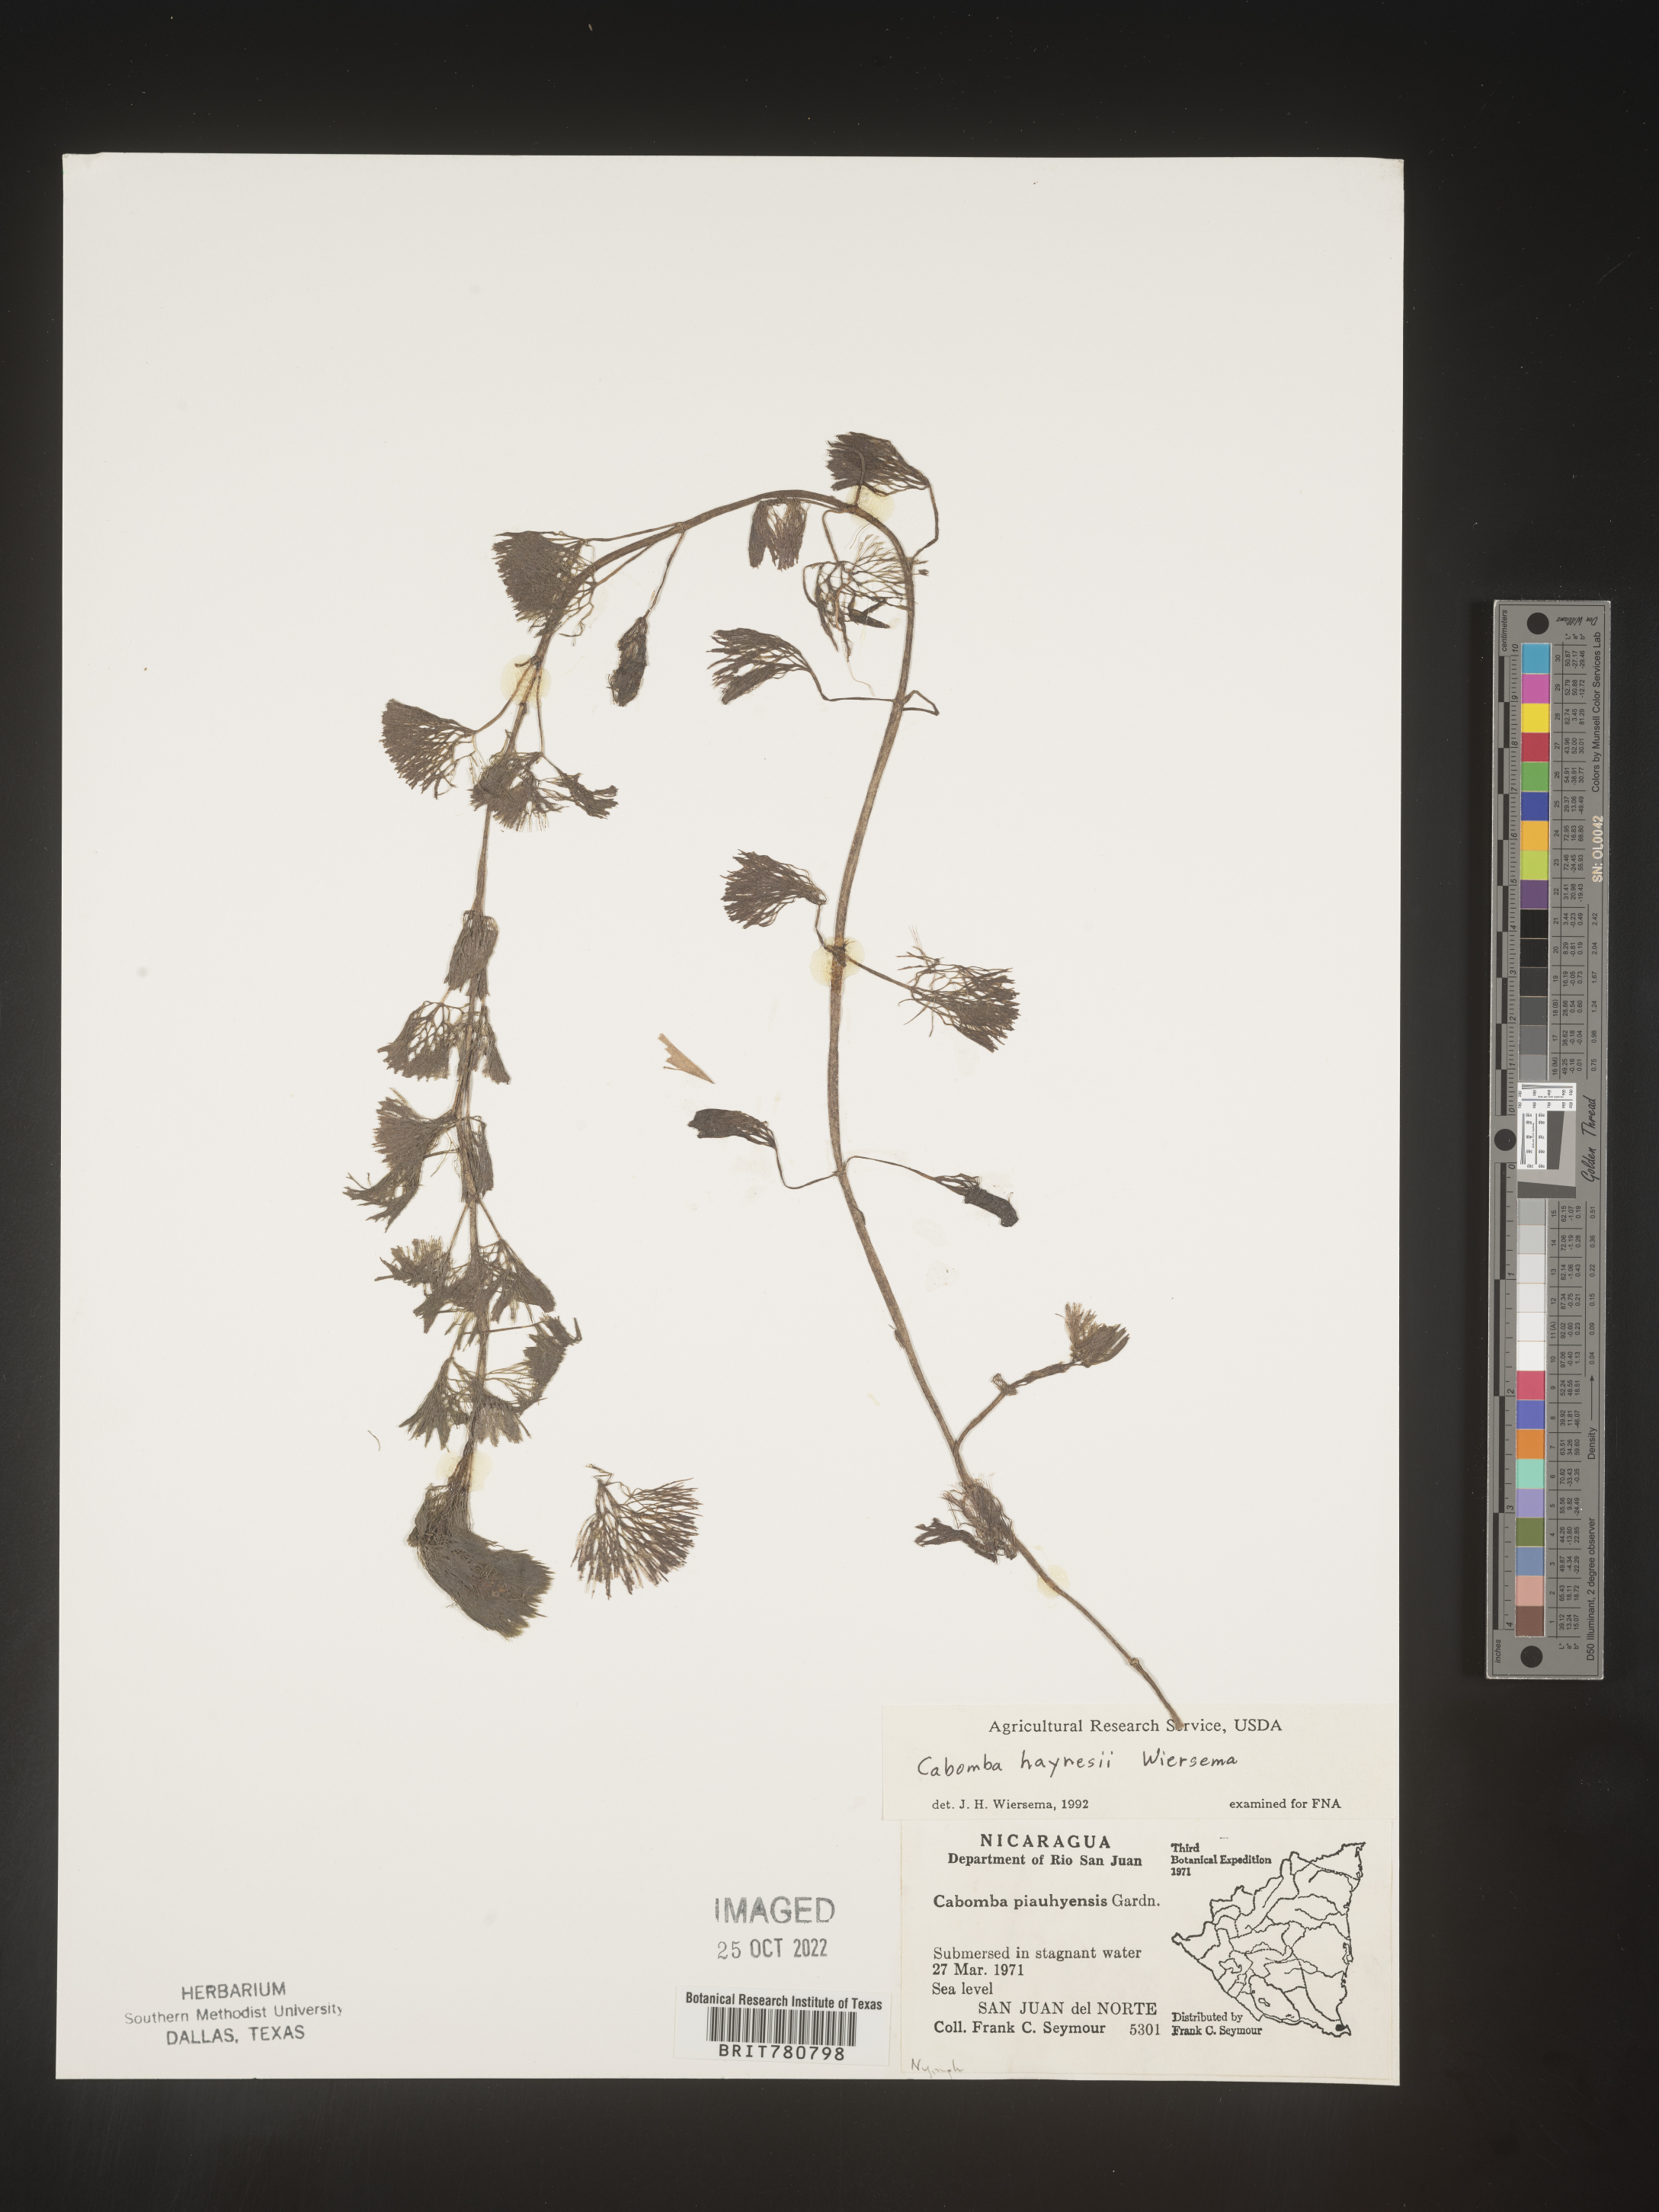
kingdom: Plantae
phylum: Tracheophyta
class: Magnoliopsida
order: Nymphaeales
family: Cabombaceae
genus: Cabomba
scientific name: Cabomba
